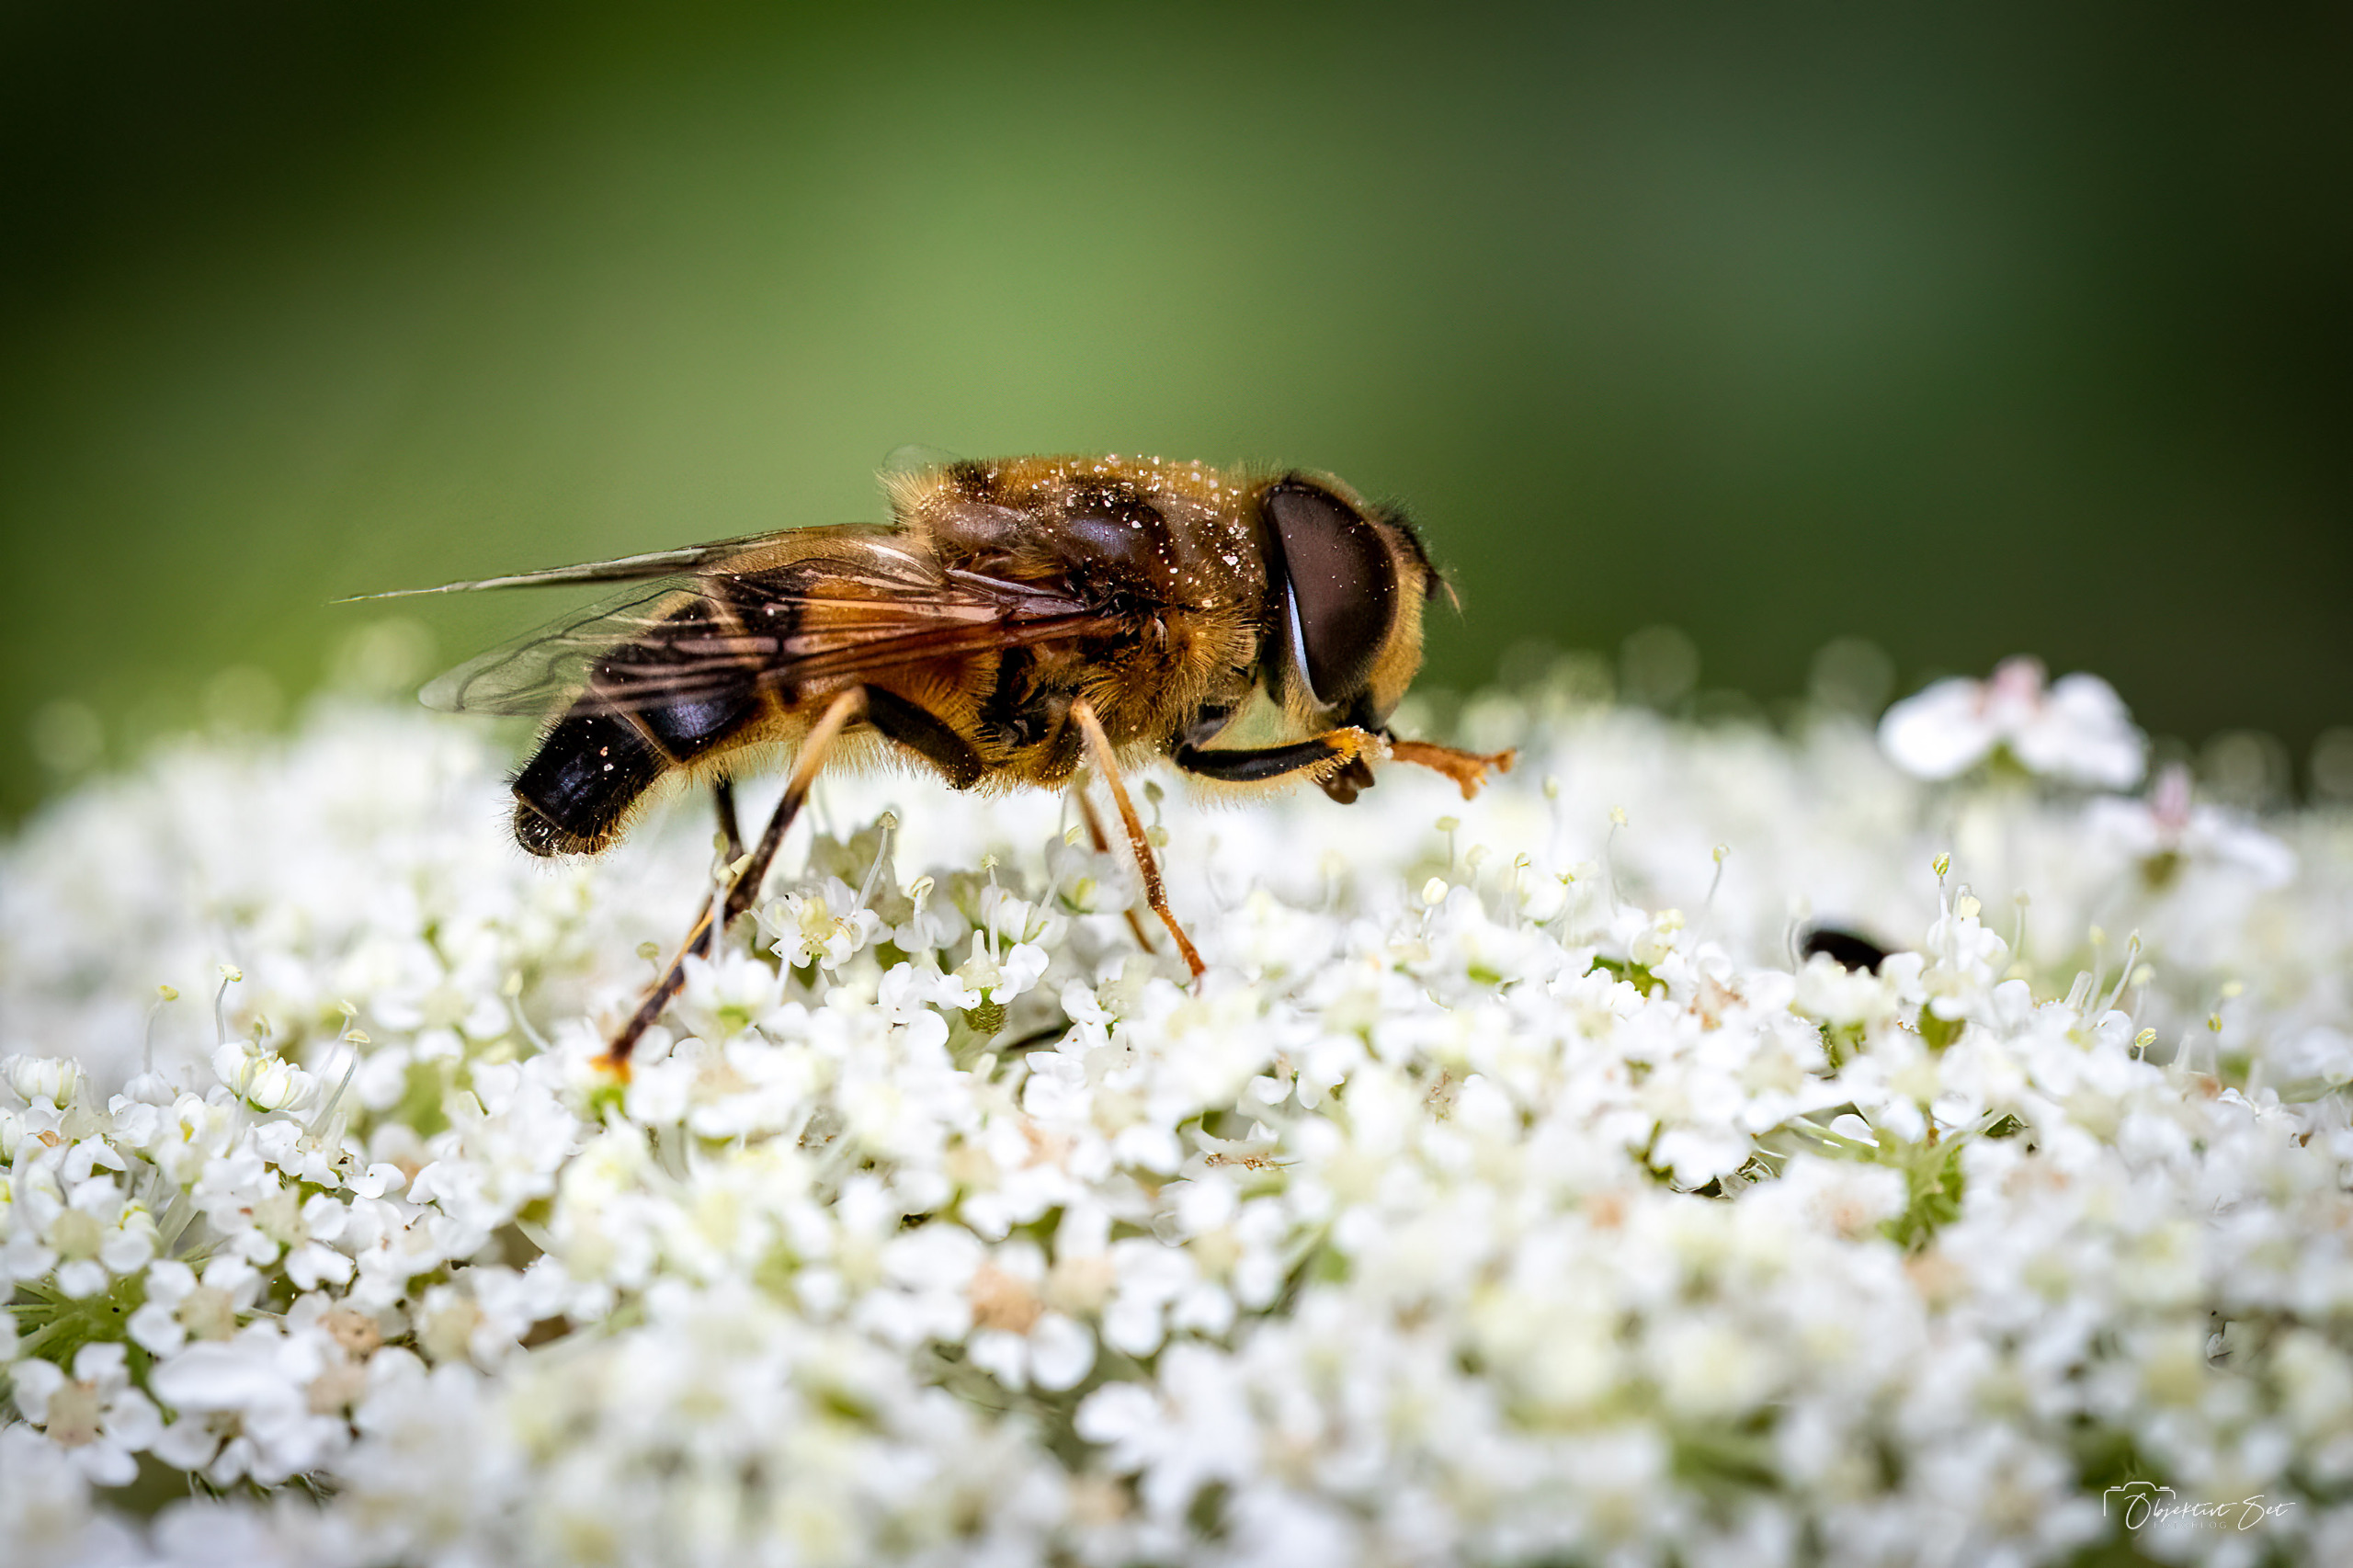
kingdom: Animalia
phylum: Arthropoda
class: Insecta
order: Diptera
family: Syrphidae
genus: Eristalis
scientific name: Eristalis pertinax
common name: Gulfodet dyndflue
